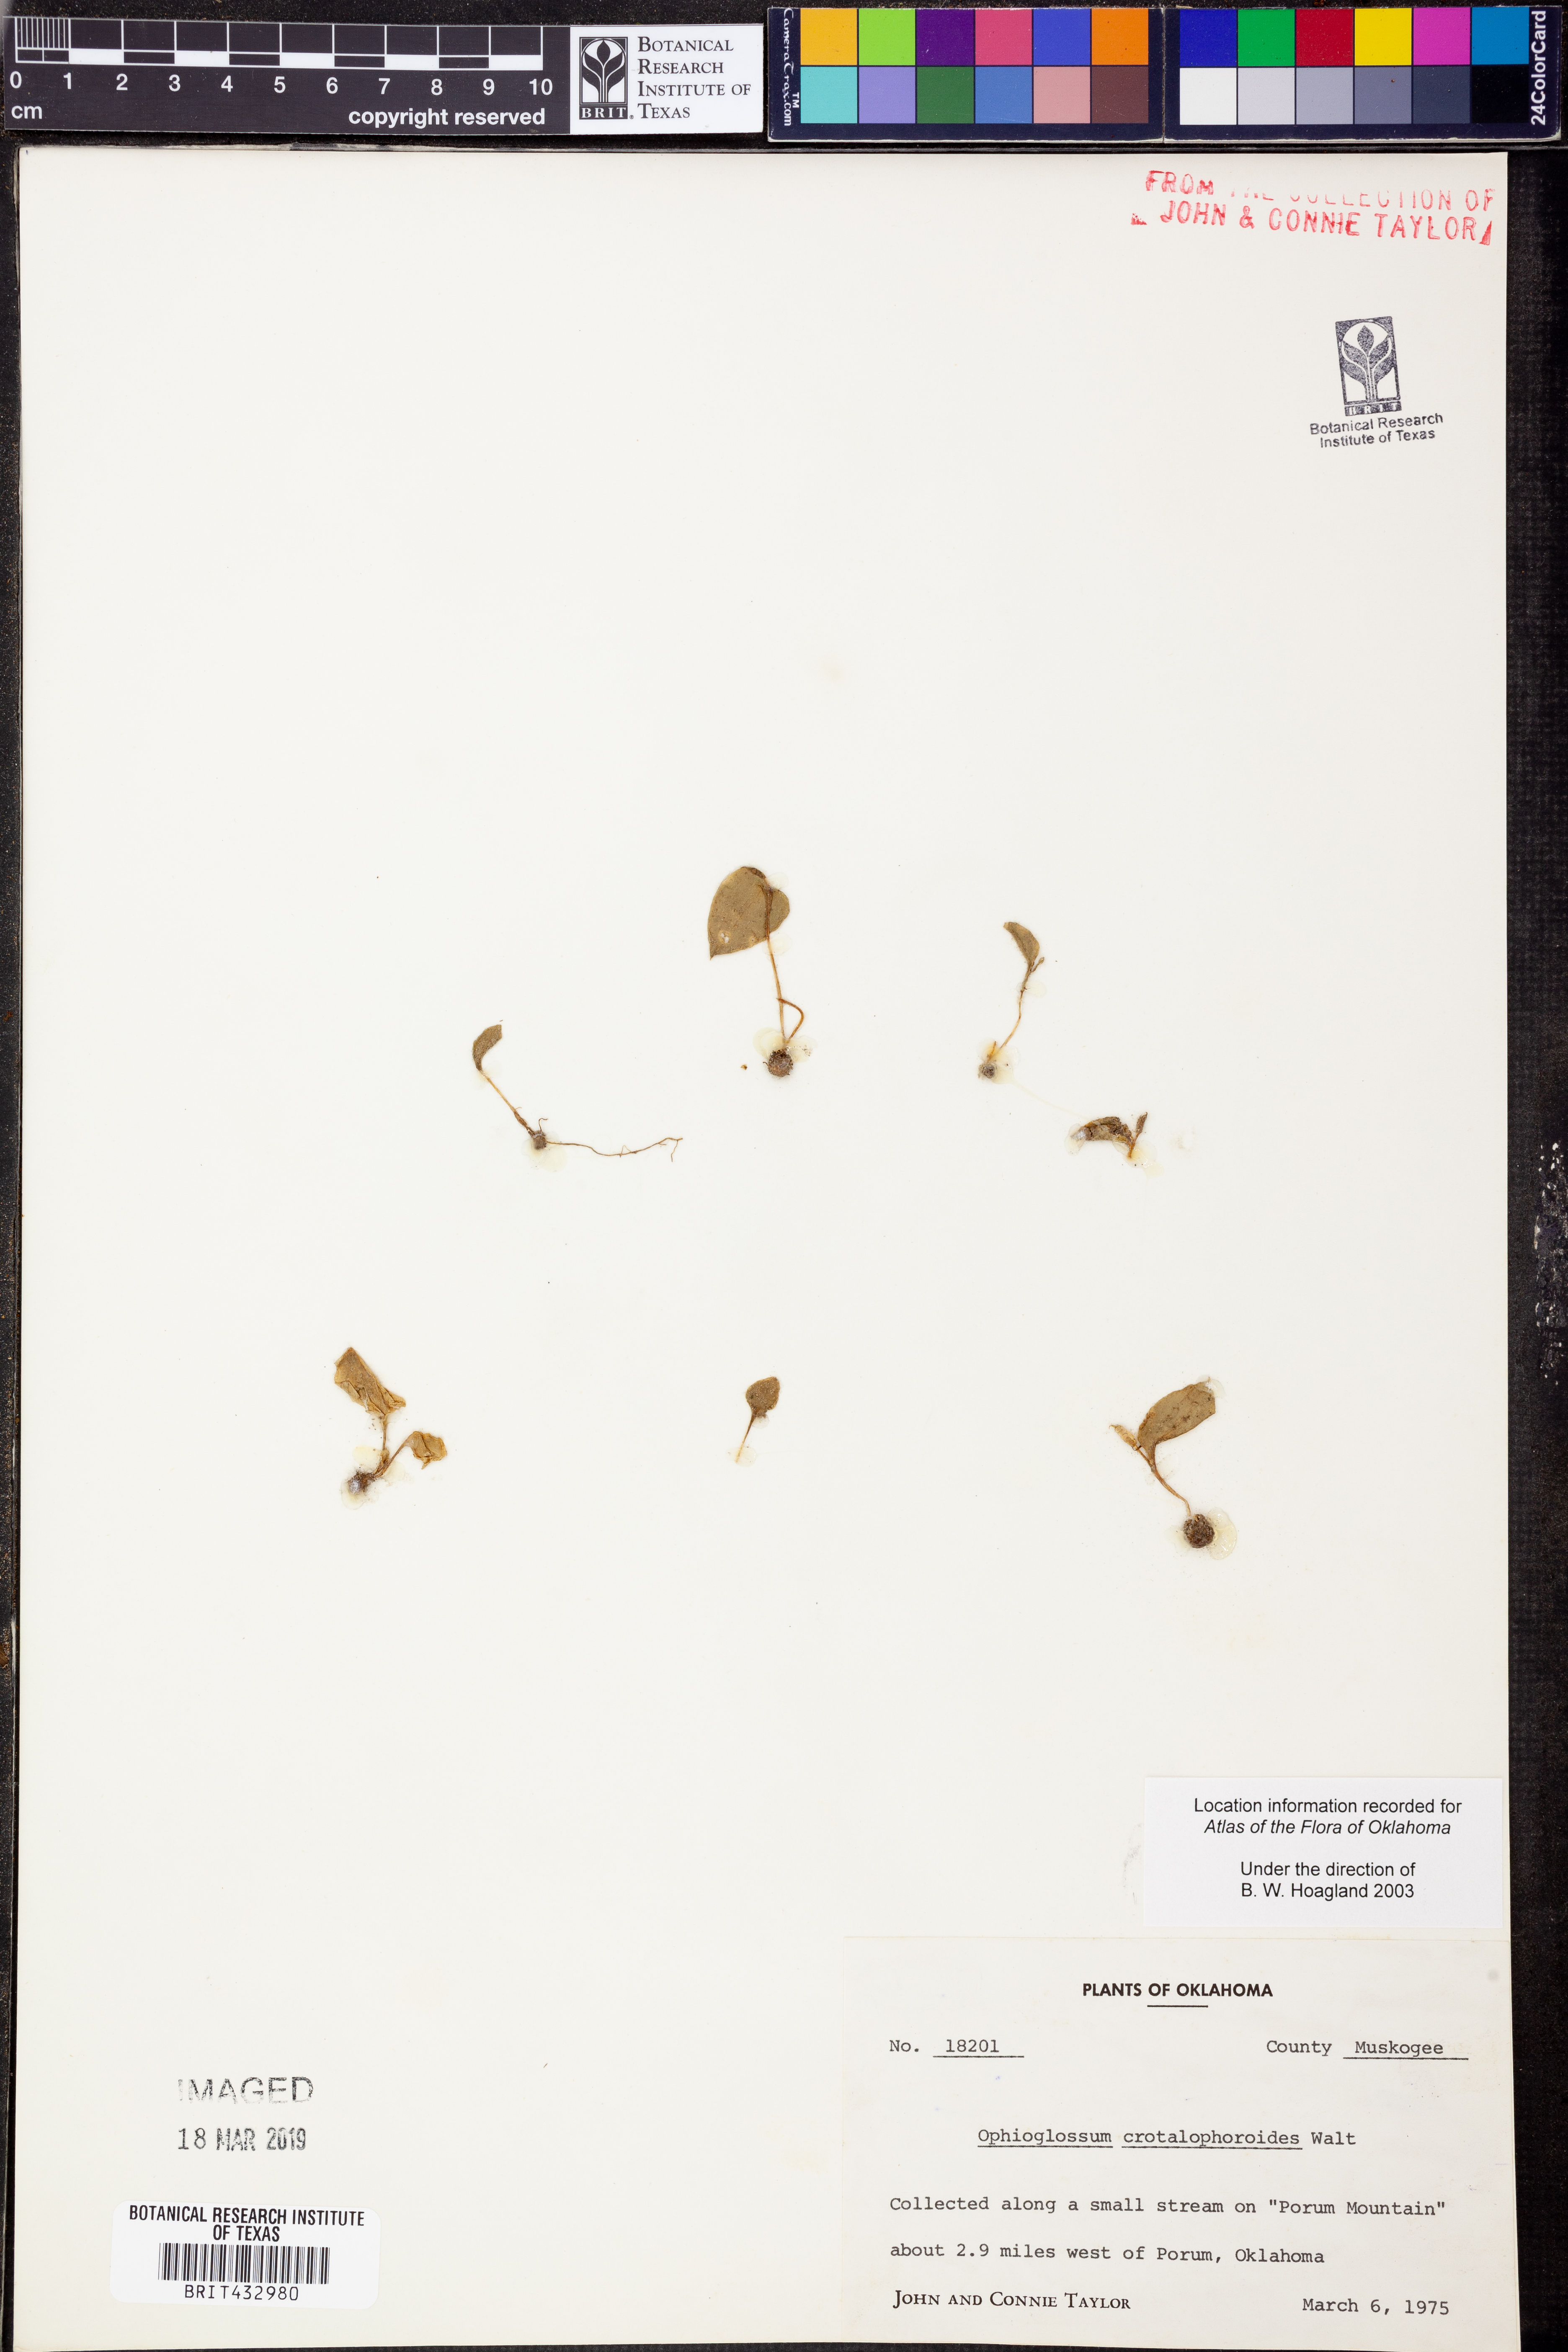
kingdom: Plantae
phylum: Tracheophyta
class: Polypodiopsida
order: Ophioglossales
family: Ophioglossaceae
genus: Ophioglossum
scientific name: Ophioglossum crotalophoroides
